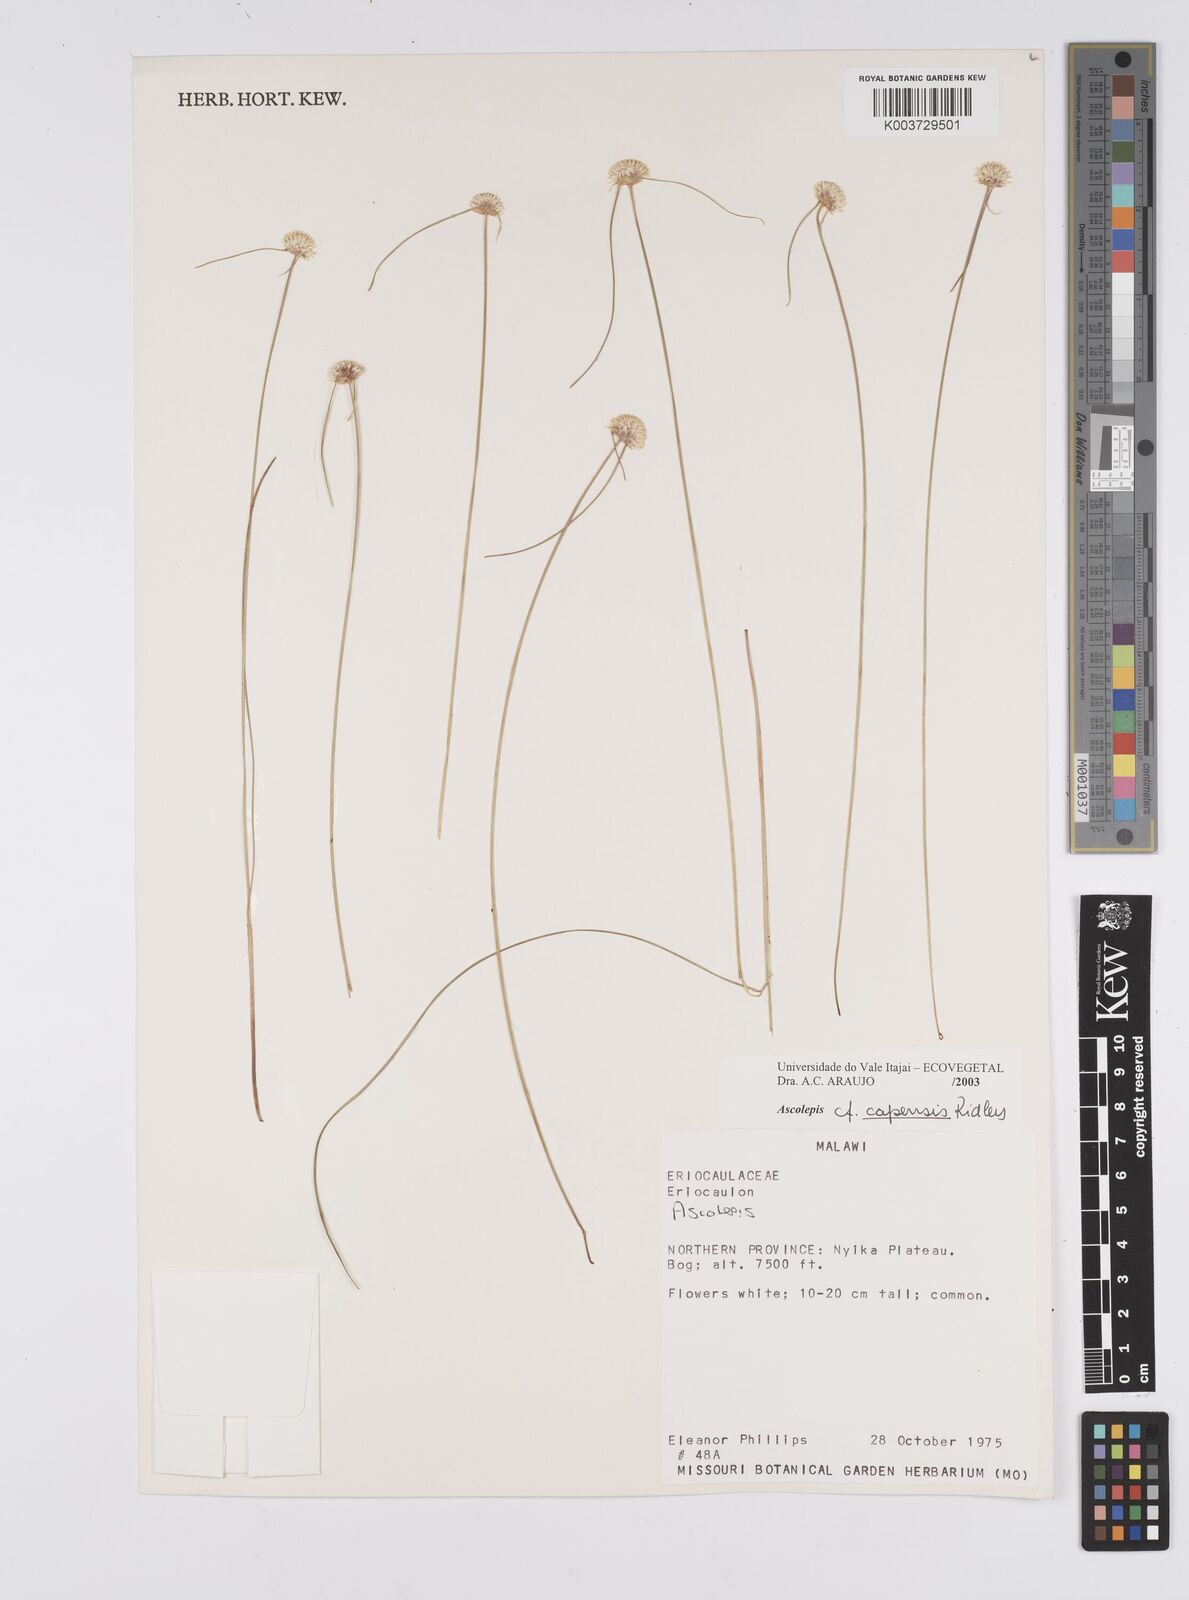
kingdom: Plantae
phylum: Tracheophyta
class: Liliopsida
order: Poales
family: Cyperaceae
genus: Cyperus
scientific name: Cyperus
